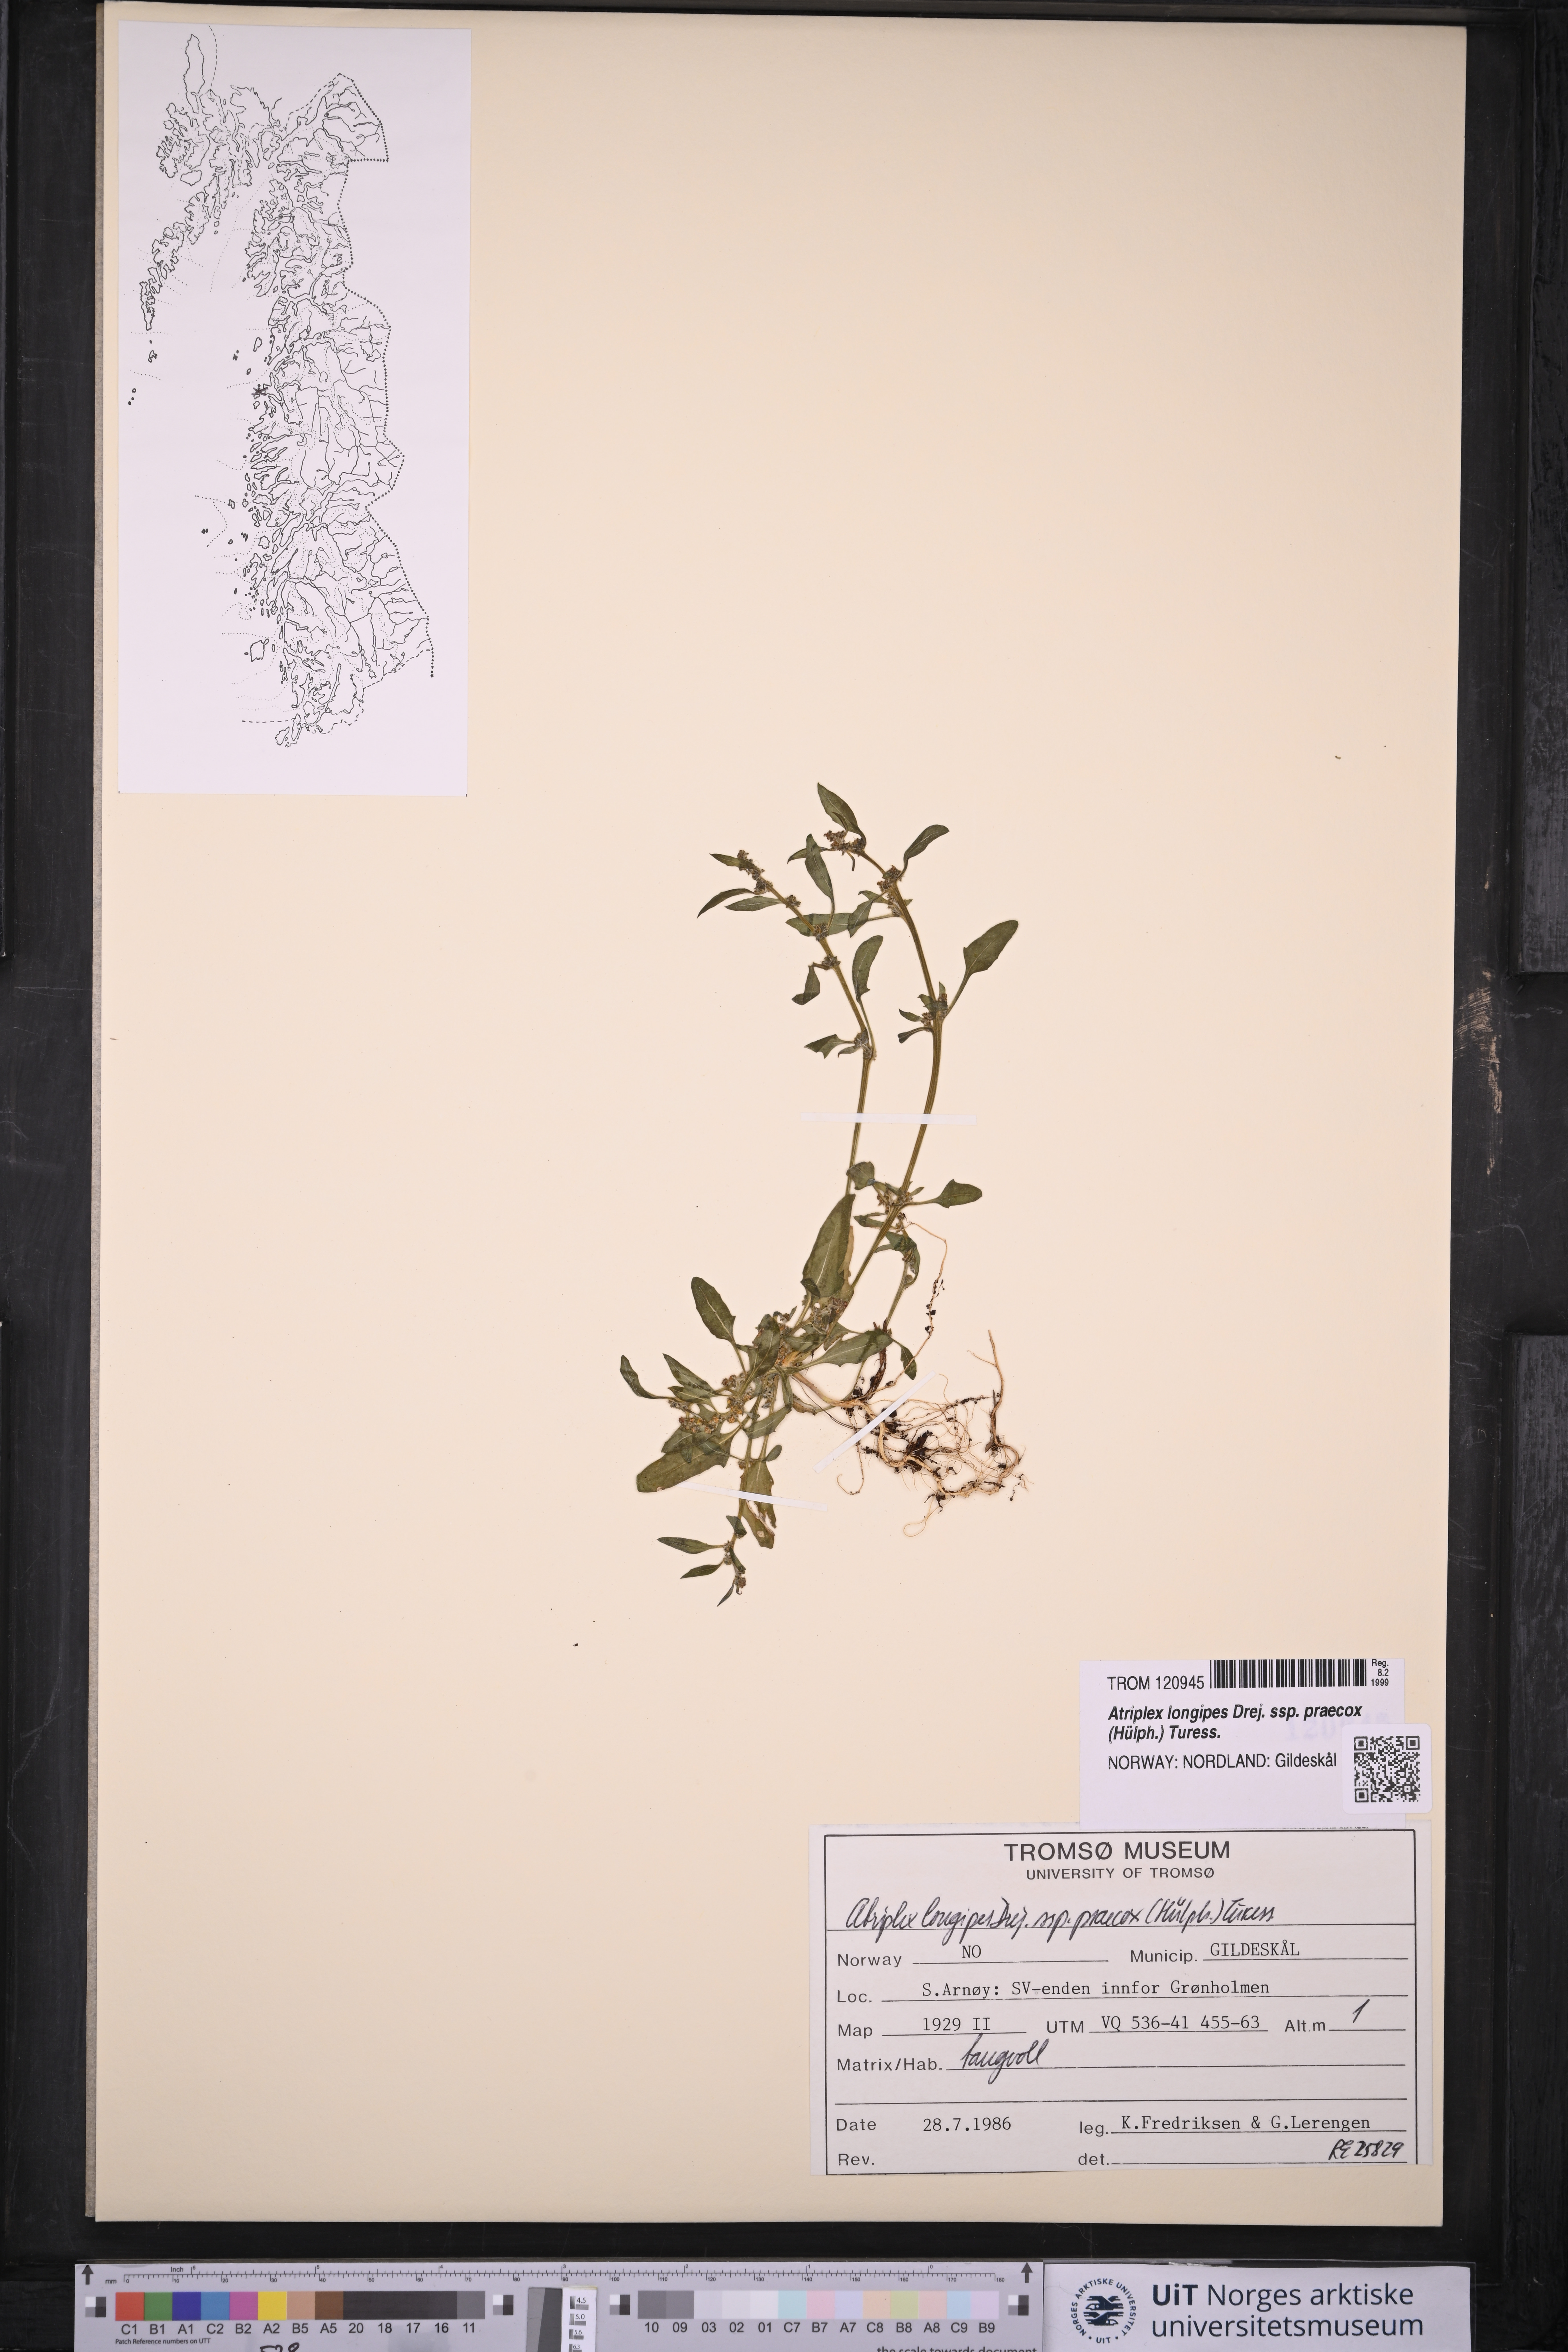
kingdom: Plantae
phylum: Tracheophyta
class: Magnoliopsida
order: Caryophyllales
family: Amaranthaceae
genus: Atriplex
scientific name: Atriplex praecox
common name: Early orache
